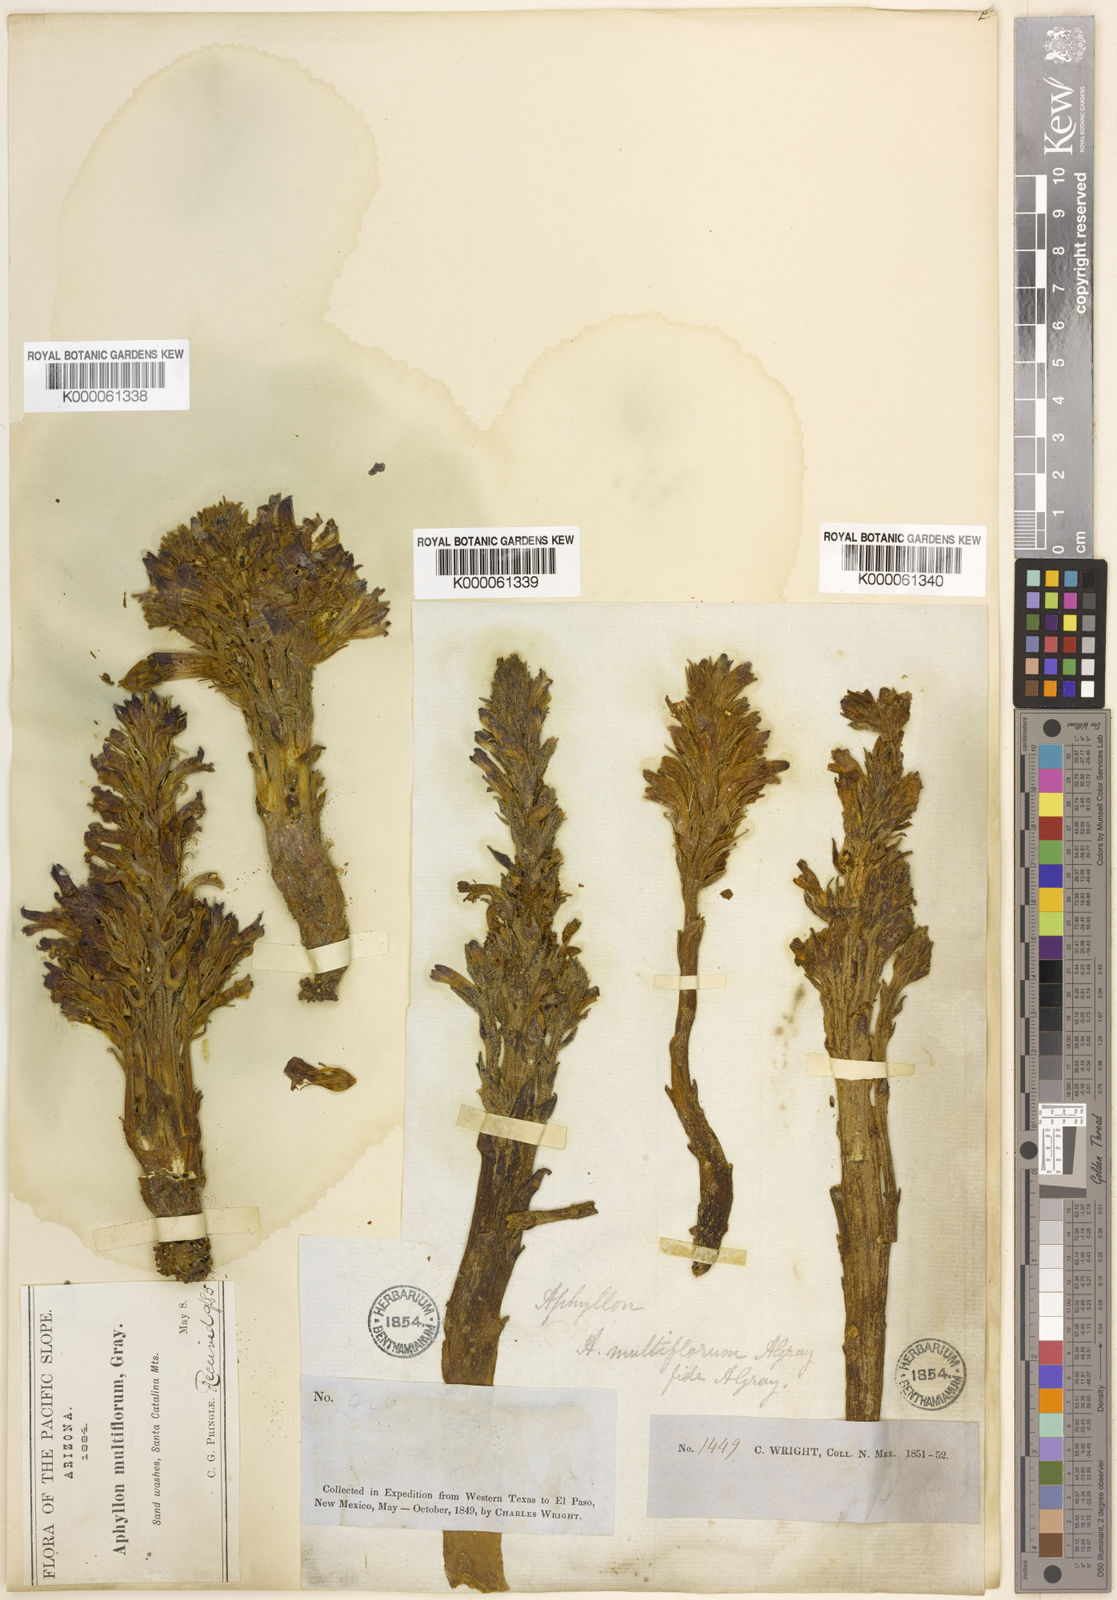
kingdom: Plantae
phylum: Tracheophyta
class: Magnoliopsida
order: Lamiales
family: Orobanchaceae
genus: Aphyllon
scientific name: Aphyllon multiflorum
